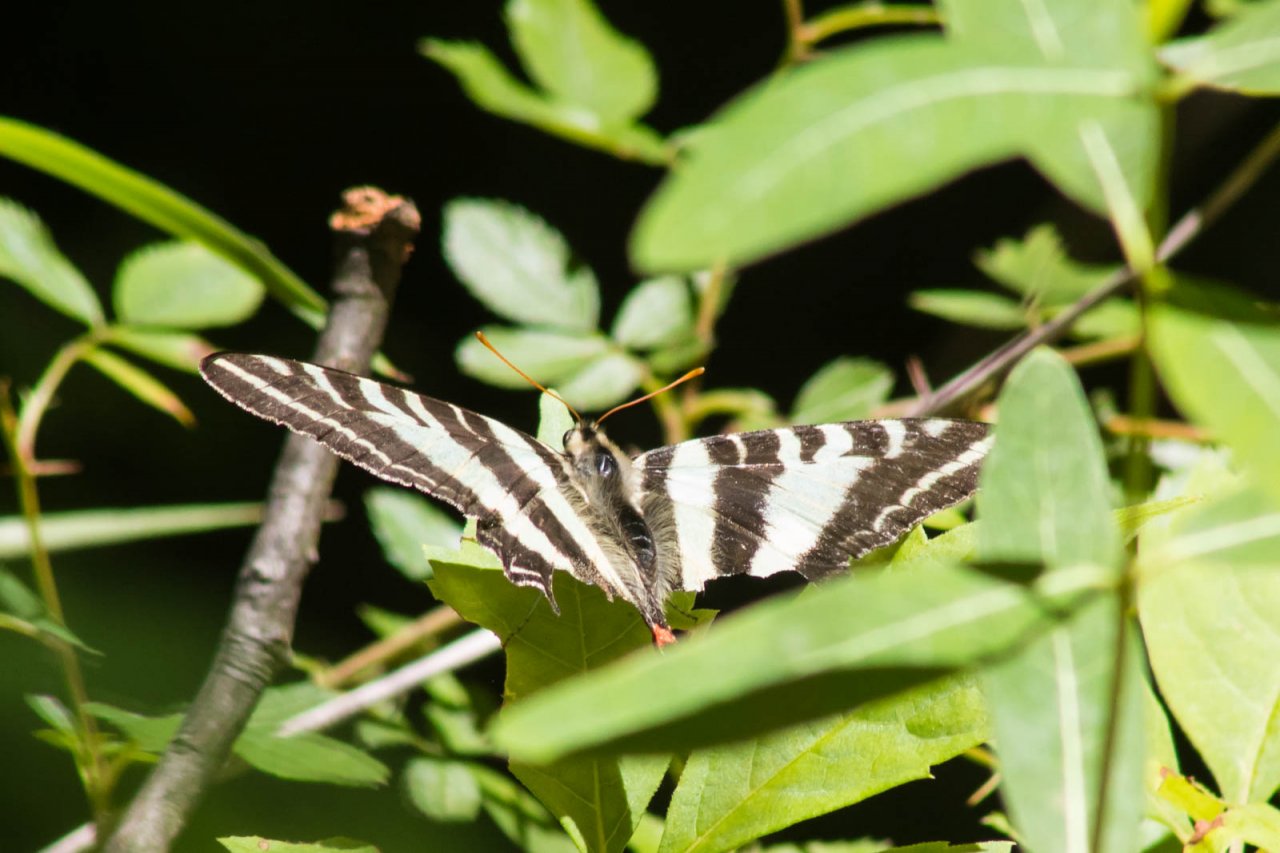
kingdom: Animalia
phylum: Arthropoda
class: Insecta
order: Lepidoptera
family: Papilionidae
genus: Protographium
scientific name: Protographium marcellus
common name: Zebra Swallowtail
